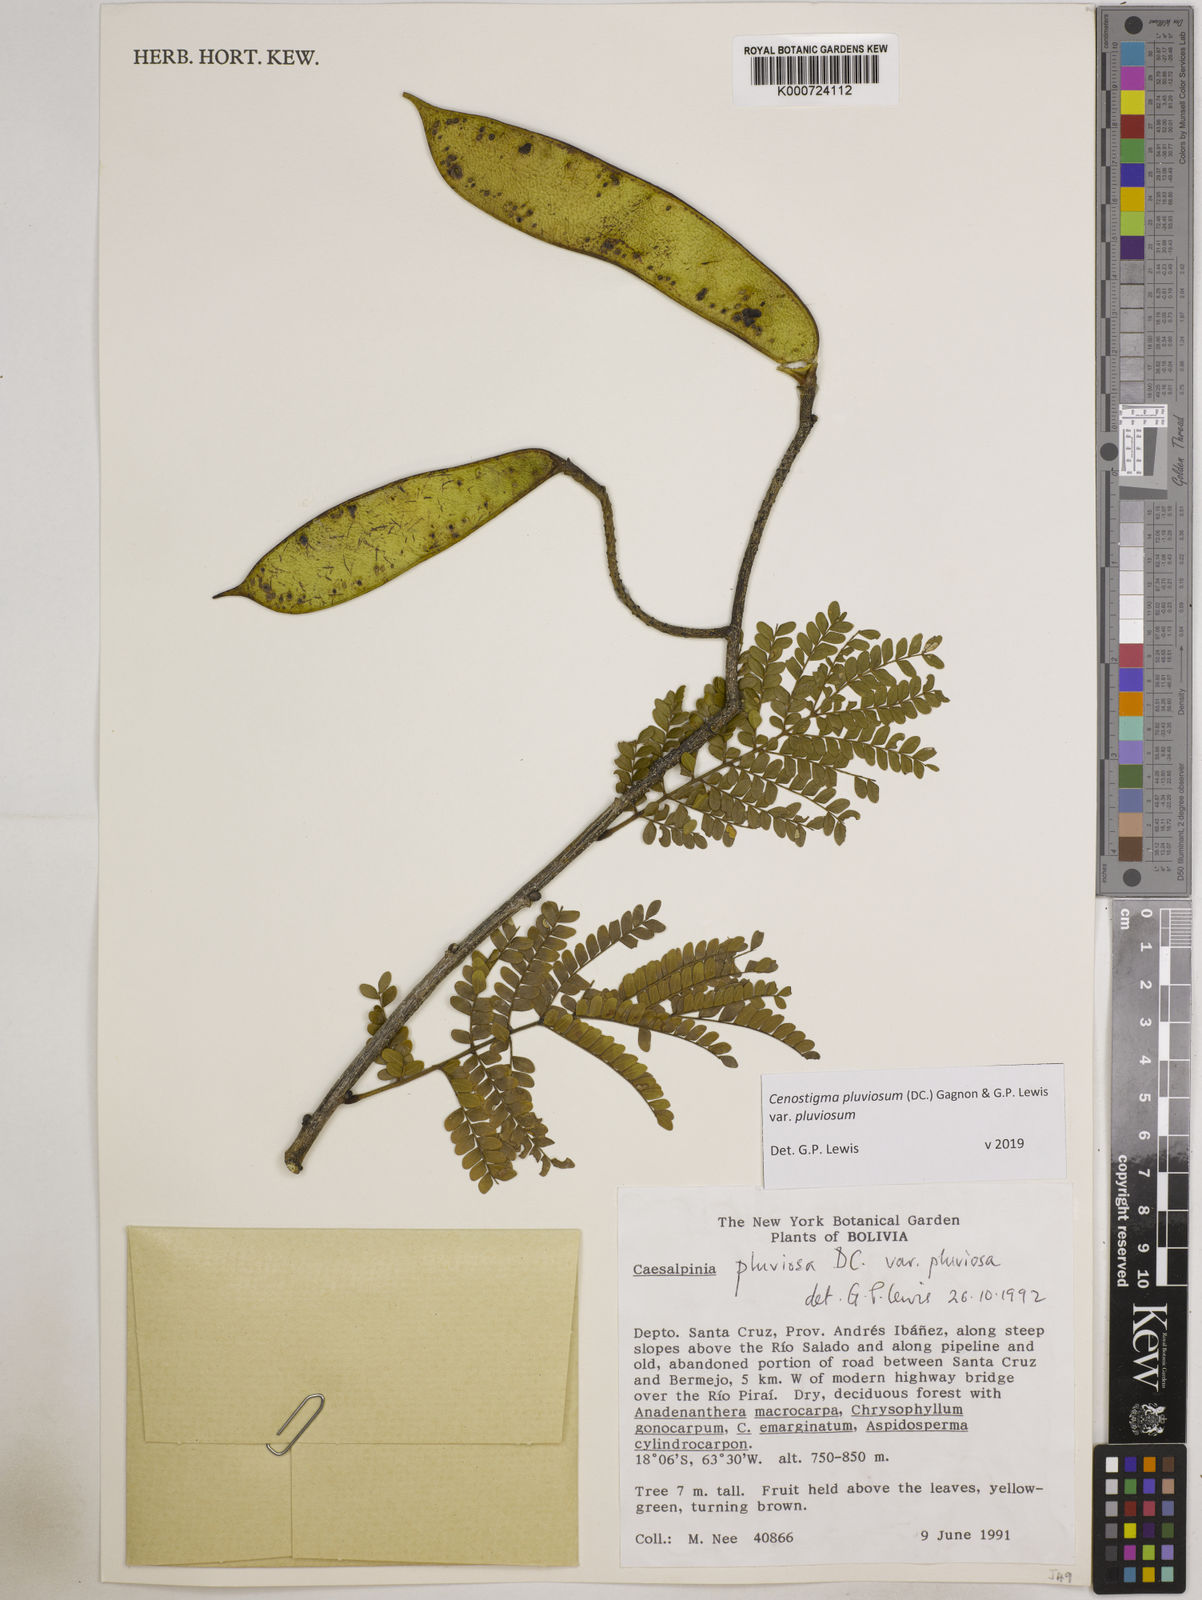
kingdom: Plantae
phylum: Tracheophyta
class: Magnoliopsida
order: Fabales
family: Fabaceae
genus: Cenostigma
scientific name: Cenostigma pluviosum
